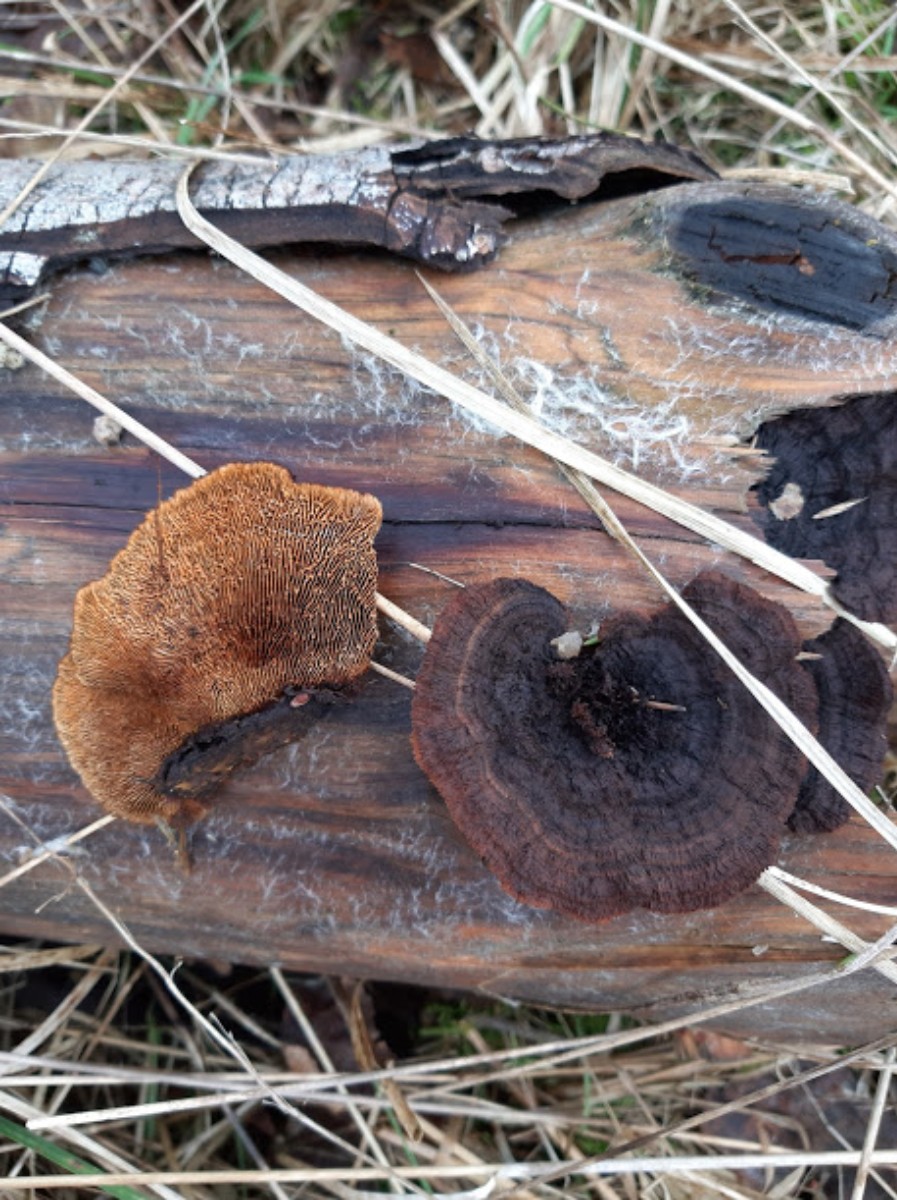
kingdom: Fungi
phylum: Basidiomycota
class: Agaricomycetes
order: Gloeophyllales
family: Gloeophyllaceae
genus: Gloeophyllum
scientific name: Gloeophyllum sepiarium
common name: fyrre-korkhat
